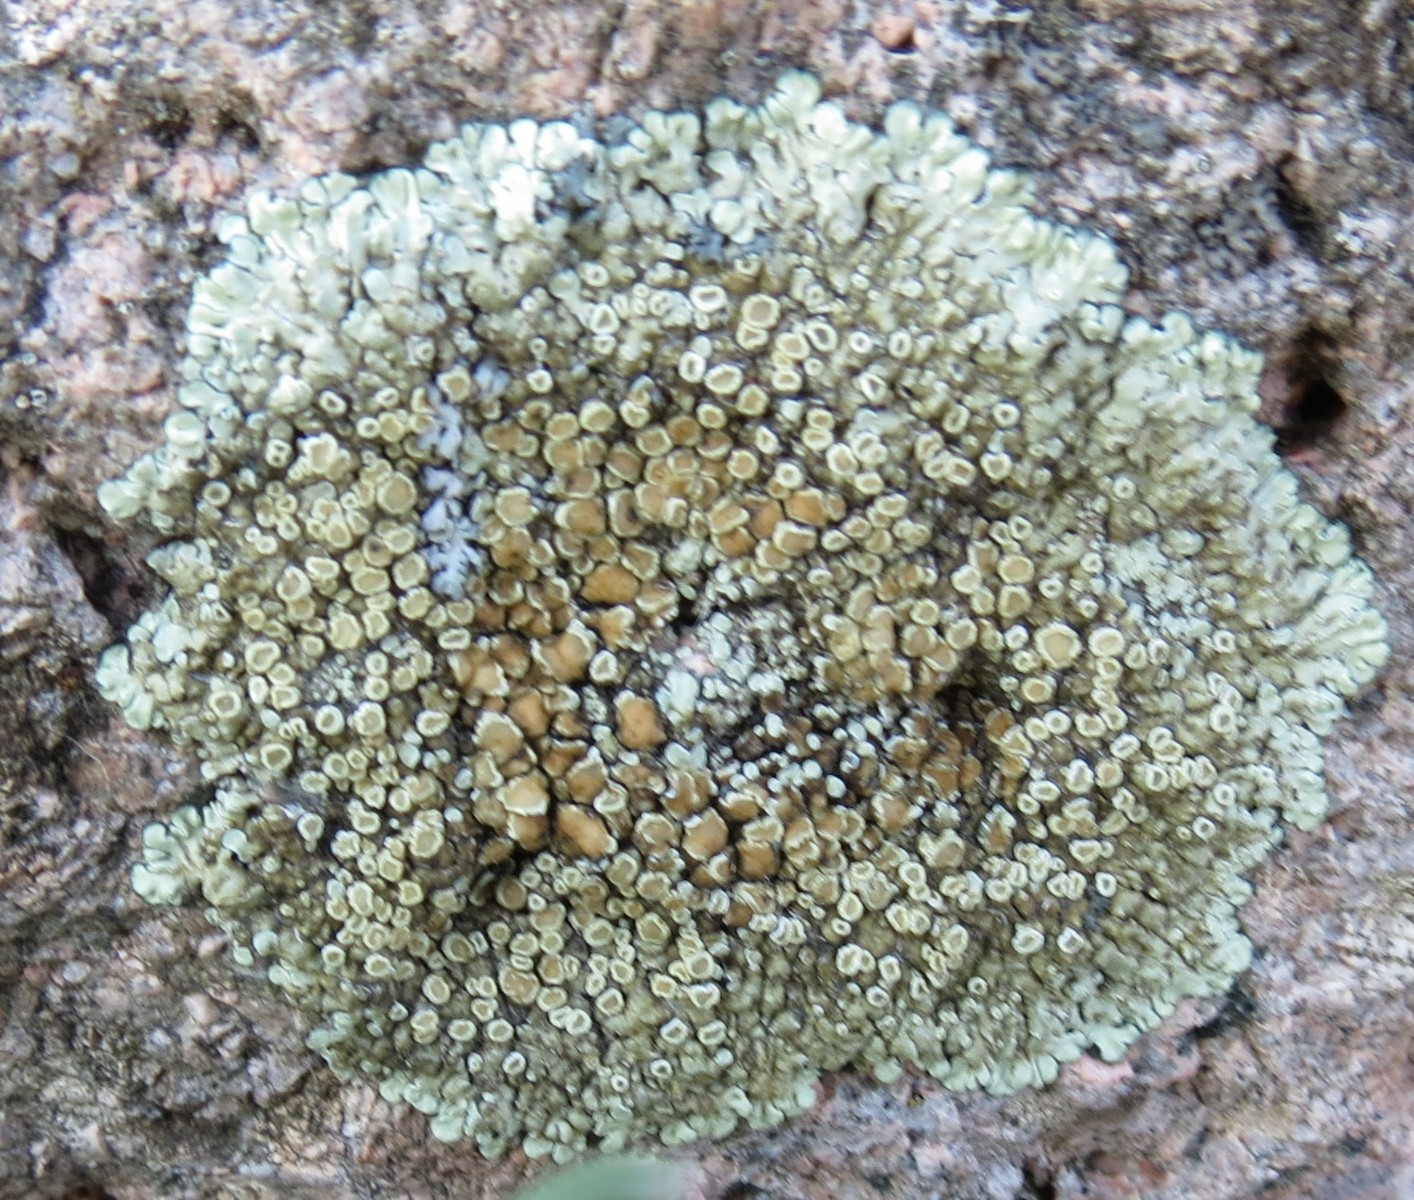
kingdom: Fungi
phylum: Ascomycota
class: Lecanoromycetes
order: Lecanorales
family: Lecanoraceae
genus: Protoparmeliopsis
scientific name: Protoparmeliopsis muralis
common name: randfliget kantskivelav
